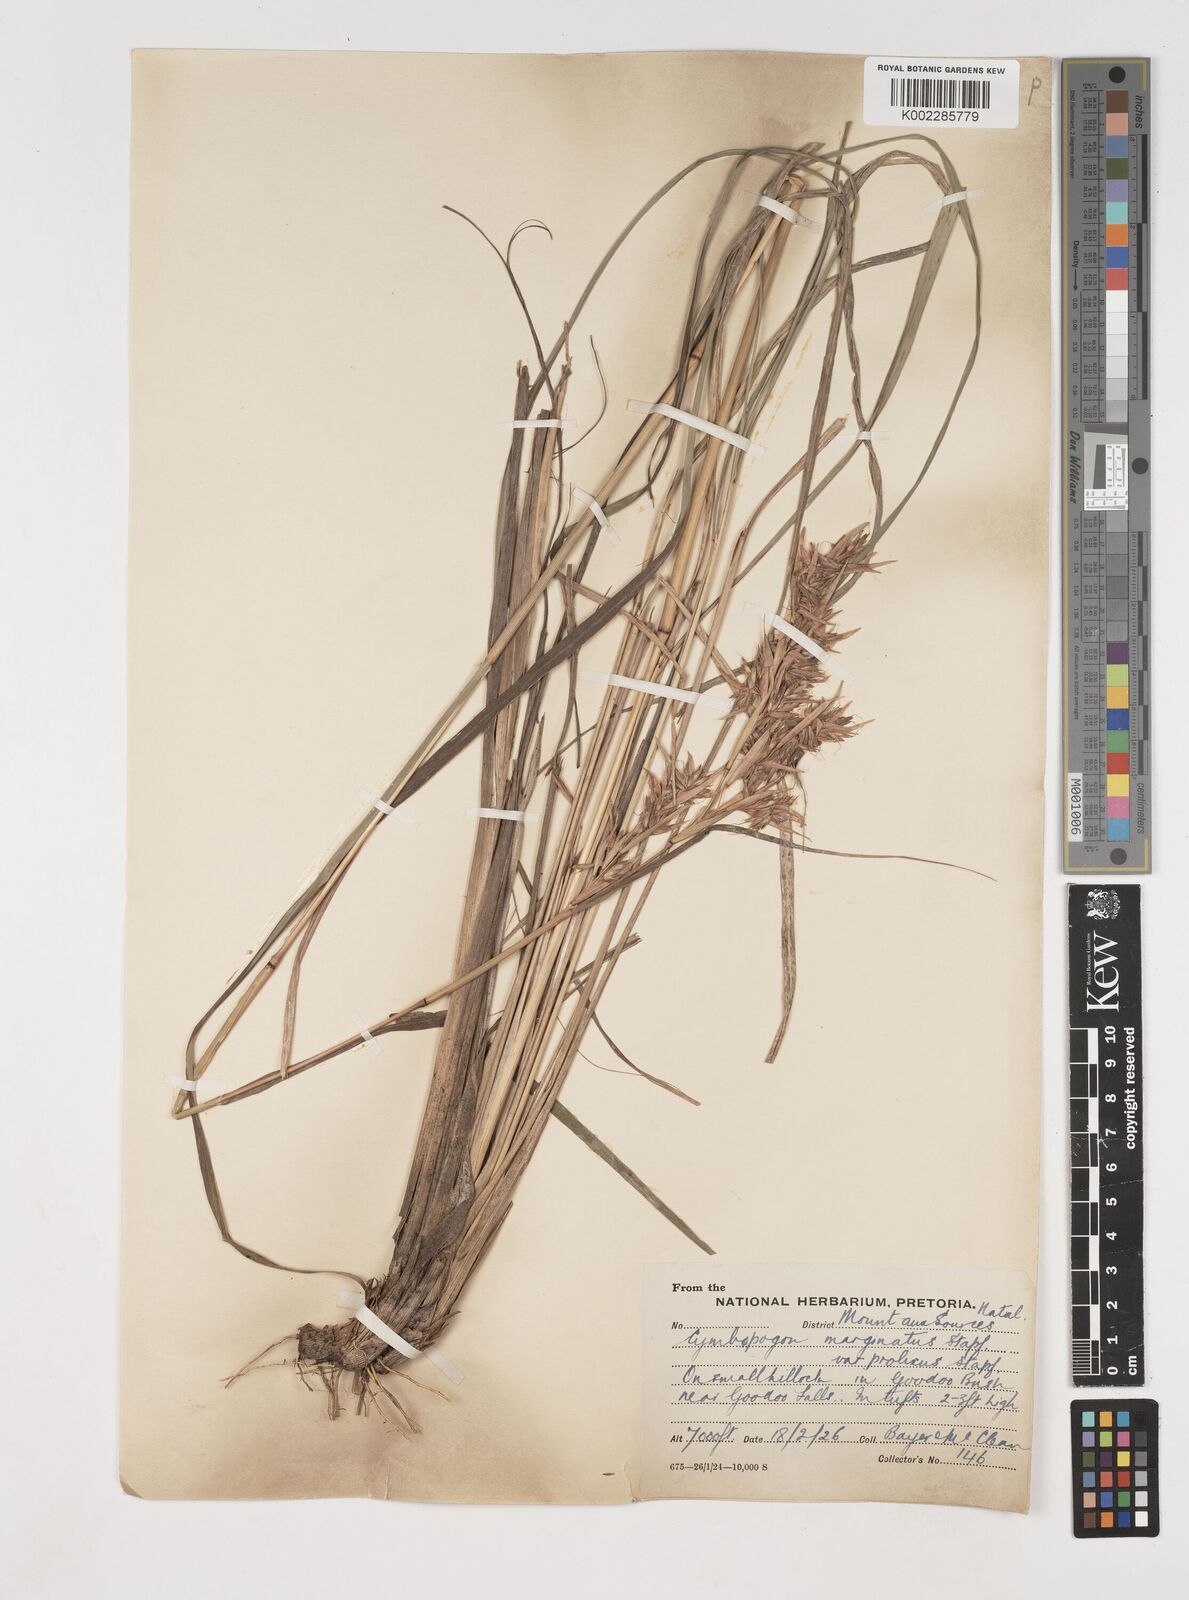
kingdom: Plantae
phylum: Tracheophyta
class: Liliopsida
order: Poales
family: Poaceae
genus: Cymbopogon
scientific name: Cymbopogon nardus
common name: Giant turpentine grass
